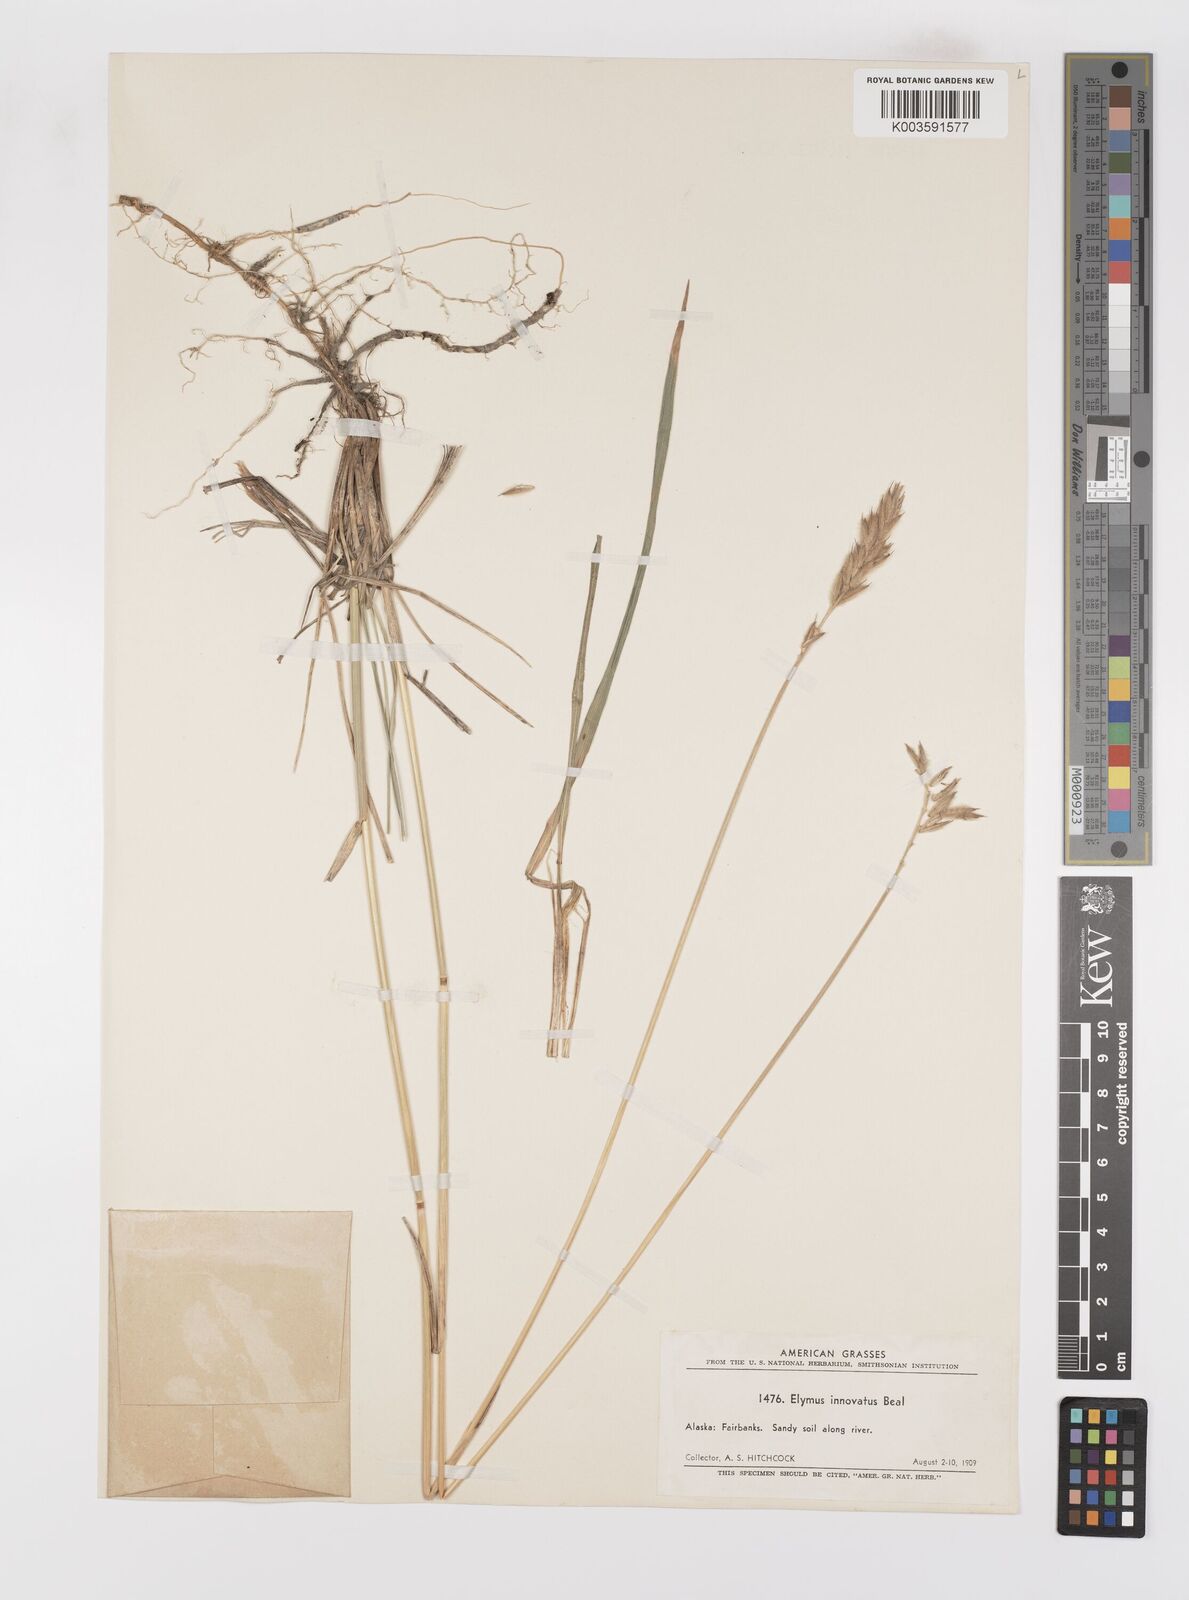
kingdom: Plantae
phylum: Tracheophyta
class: Liliopsida
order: Poales
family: Poaceae
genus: Leymus
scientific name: Leymus innovatus
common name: Boreal wild rye
